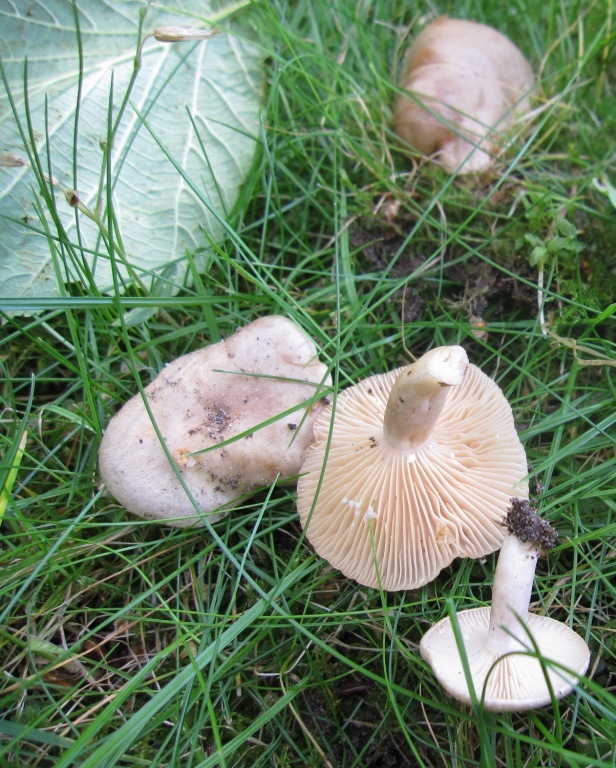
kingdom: Fungi
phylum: Basidiomycota
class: Agaricomycetes
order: Russulales
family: Russulaceae
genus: Lactarius
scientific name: Lactarius pyrogalus
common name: hassel-mælkehat
